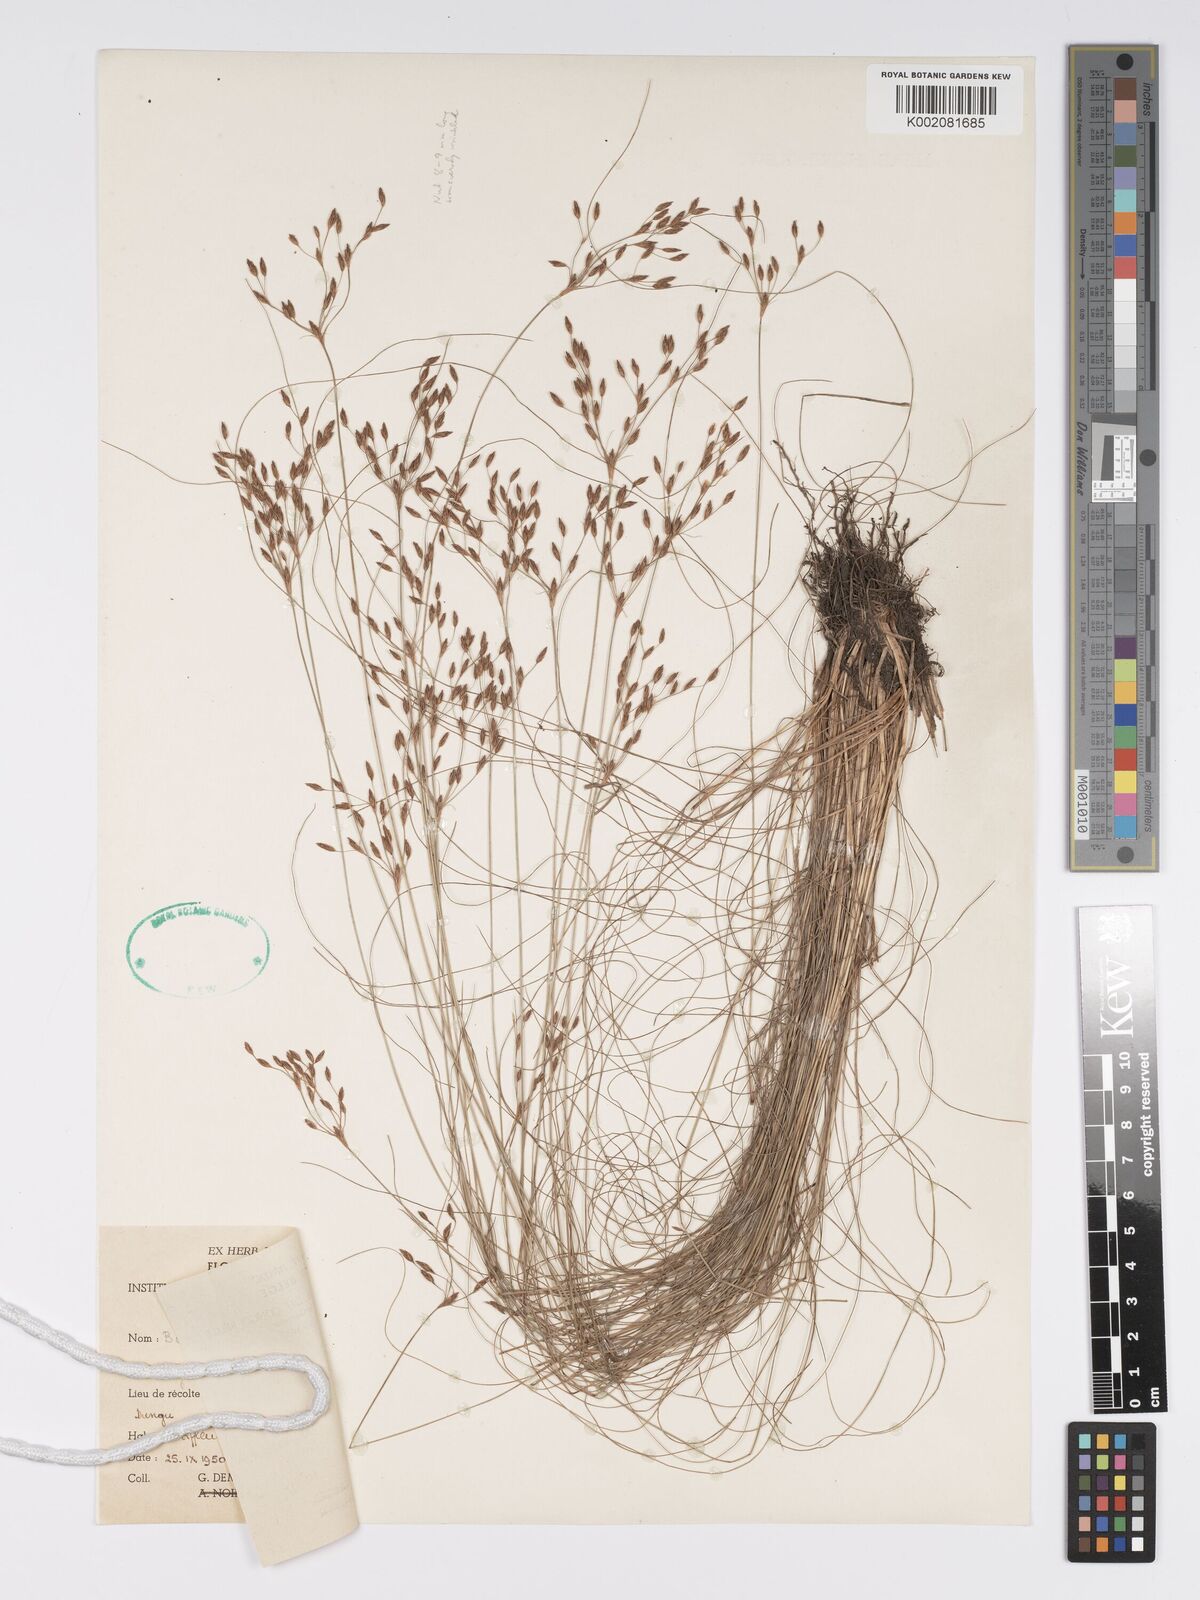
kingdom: Plantae
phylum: Tracheophyta
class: Liliopsida
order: Poales
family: Cyperaceae
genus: Bulbostylis
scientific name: Bulbostylis abortiva
